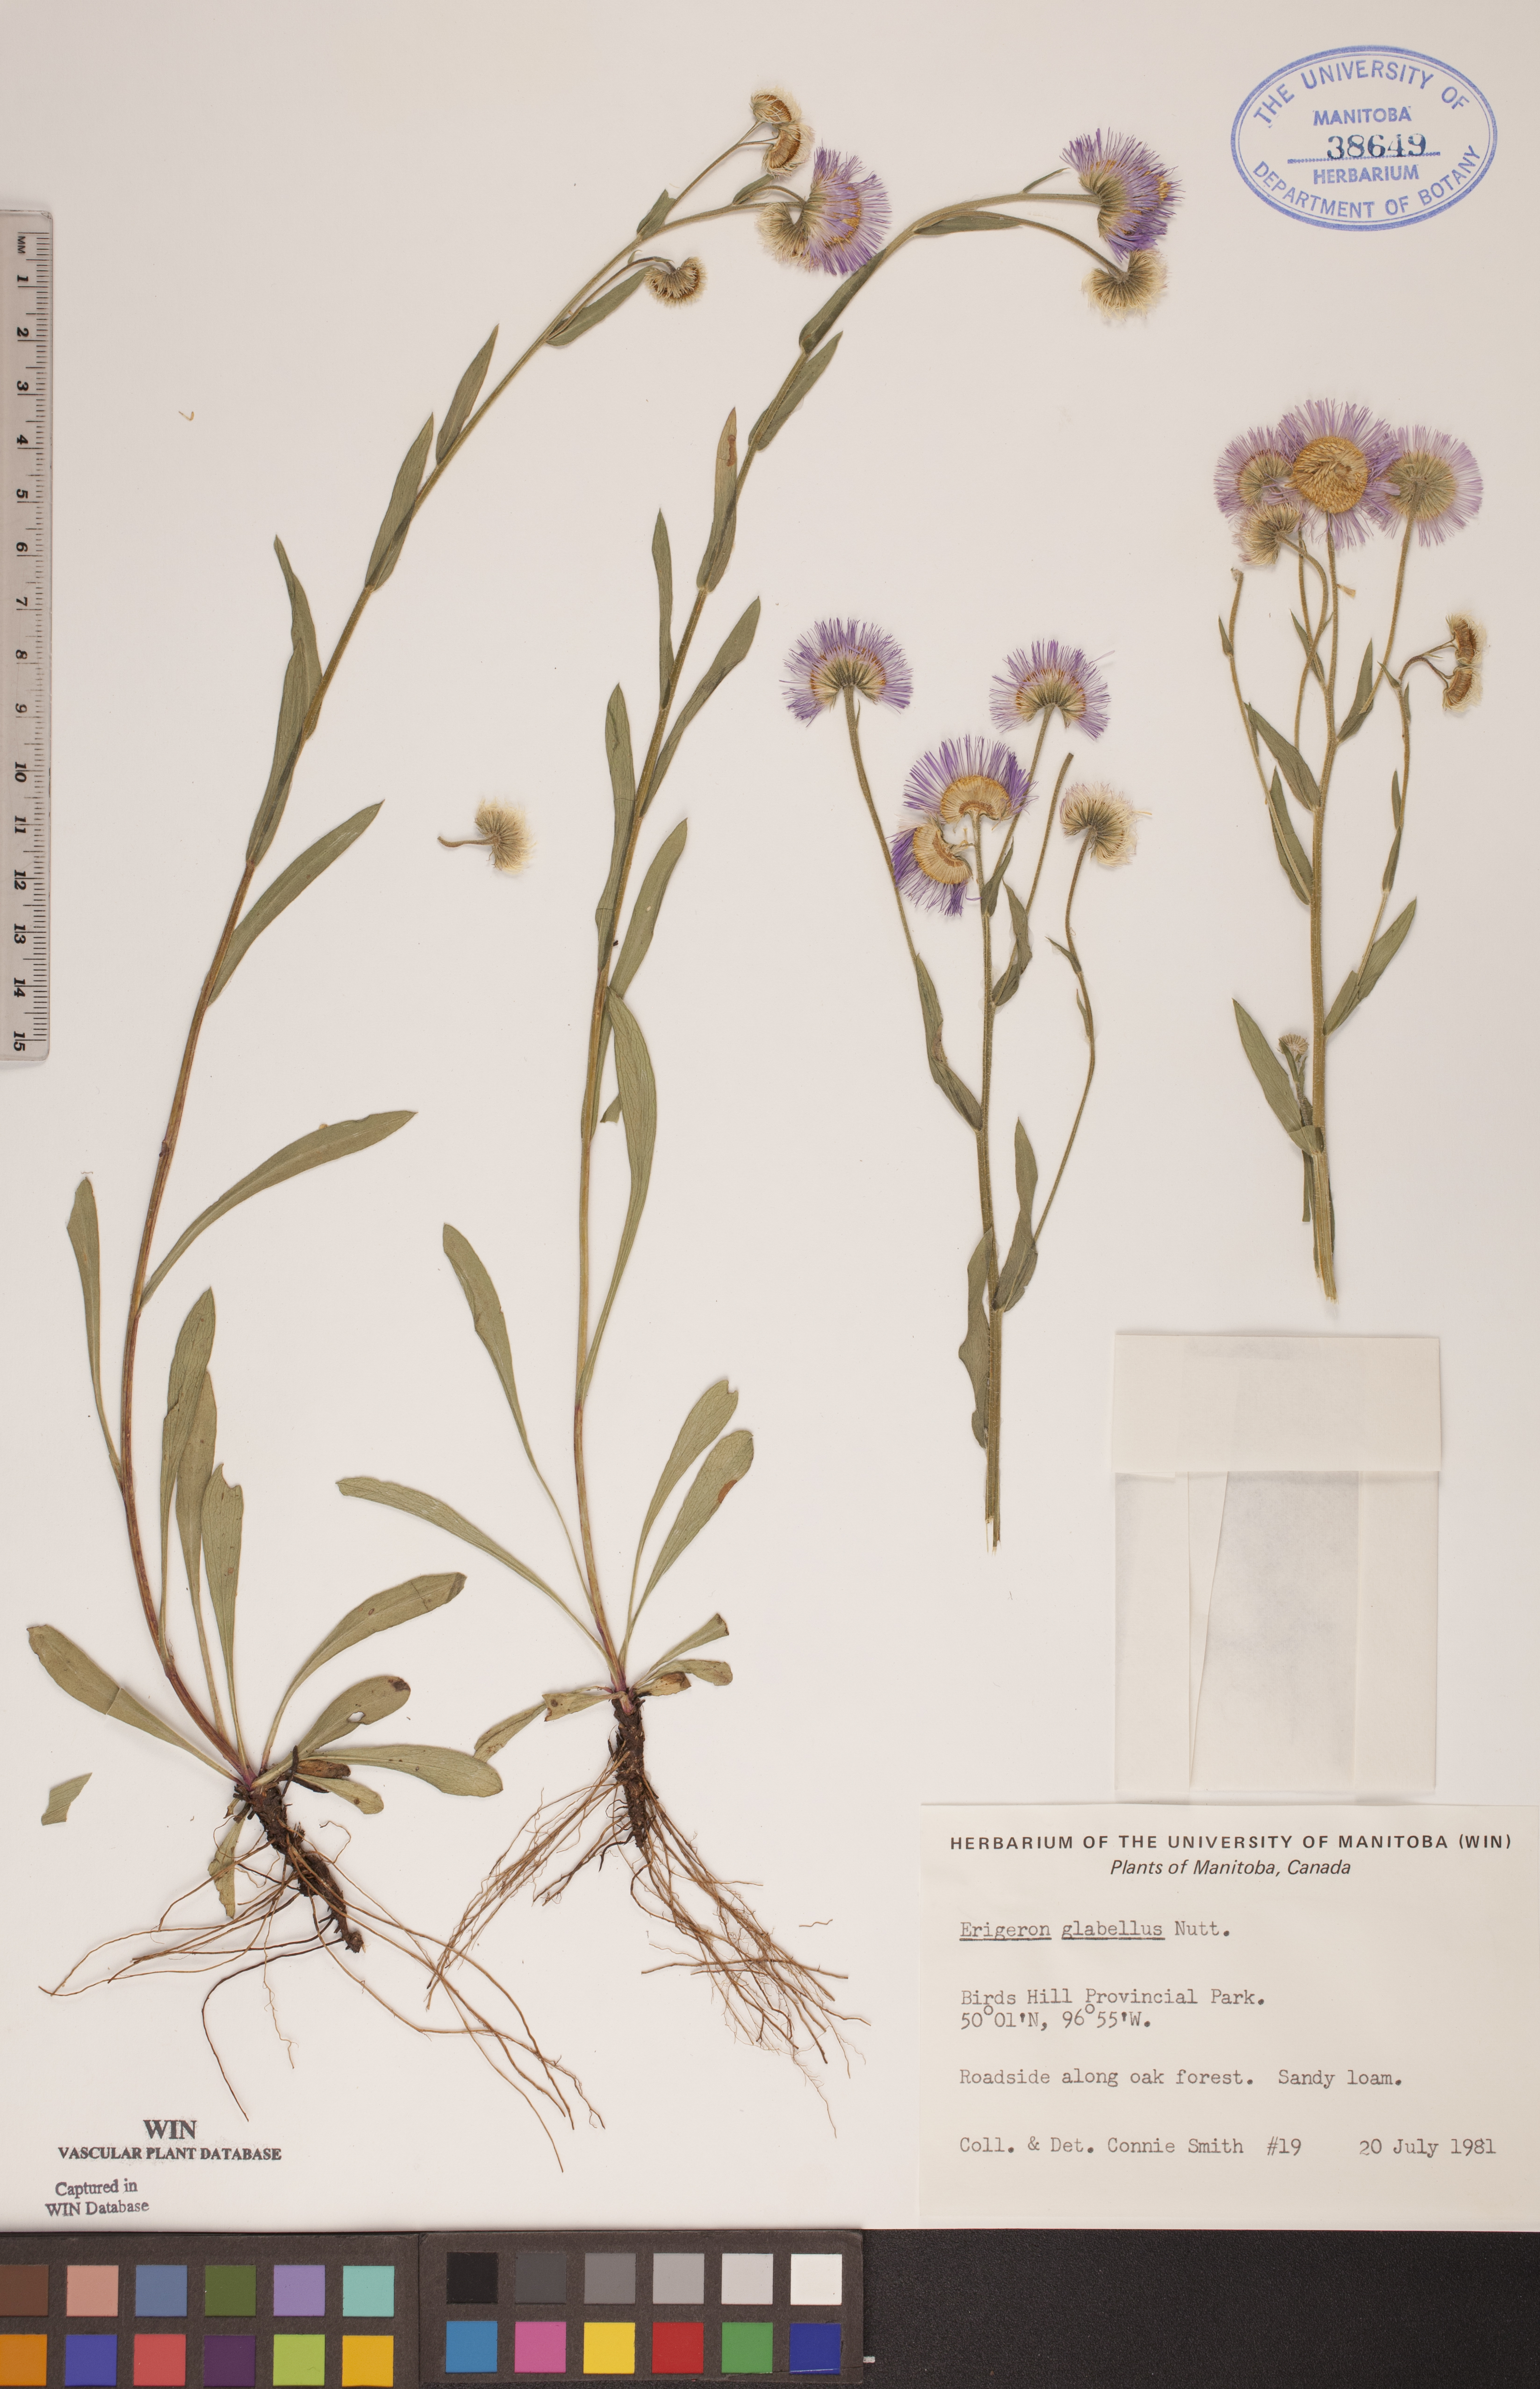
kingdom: Plantae
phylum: Tracheophyta
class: Magnoliopsida
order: Asterales
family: Asteraceae
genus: Erigeron
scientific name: Erigeron glabellus
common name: Smooth fleabane
